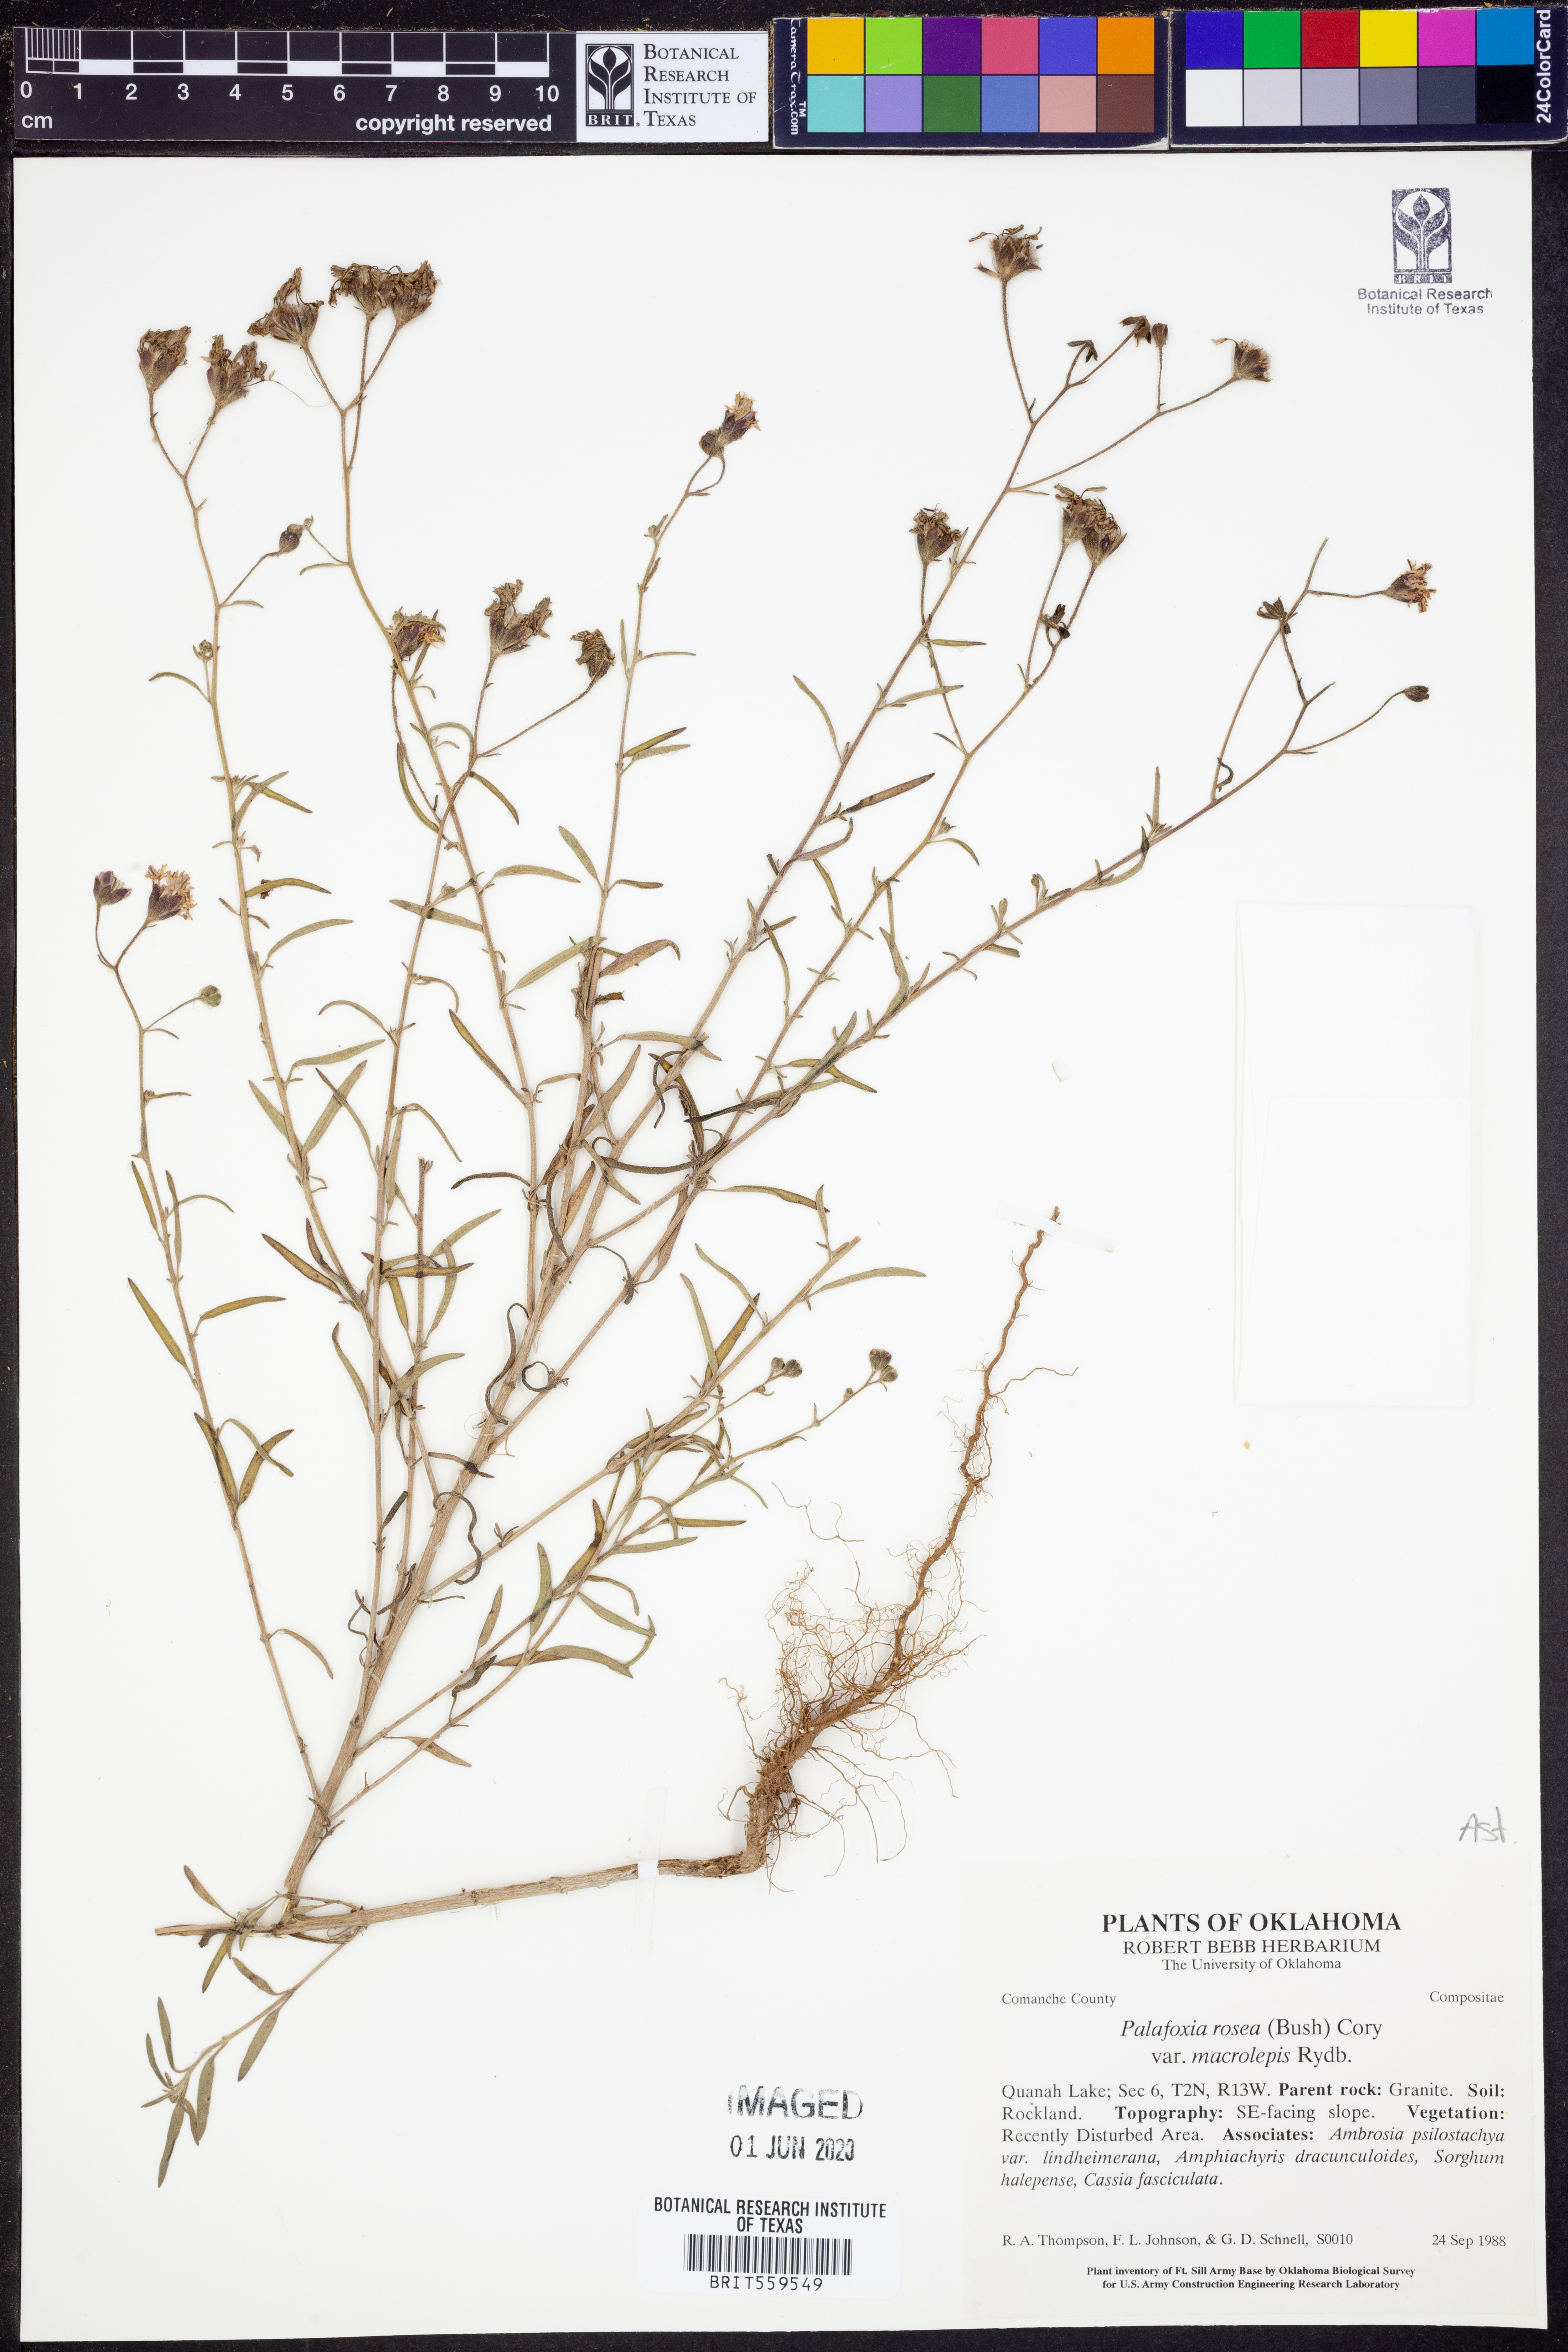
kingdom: Plantae
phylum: Tracheophyta
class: Magnoliopsida
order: Asterales
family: Asteraceae
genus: Palafoxia
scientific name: Palafoxia rosea
